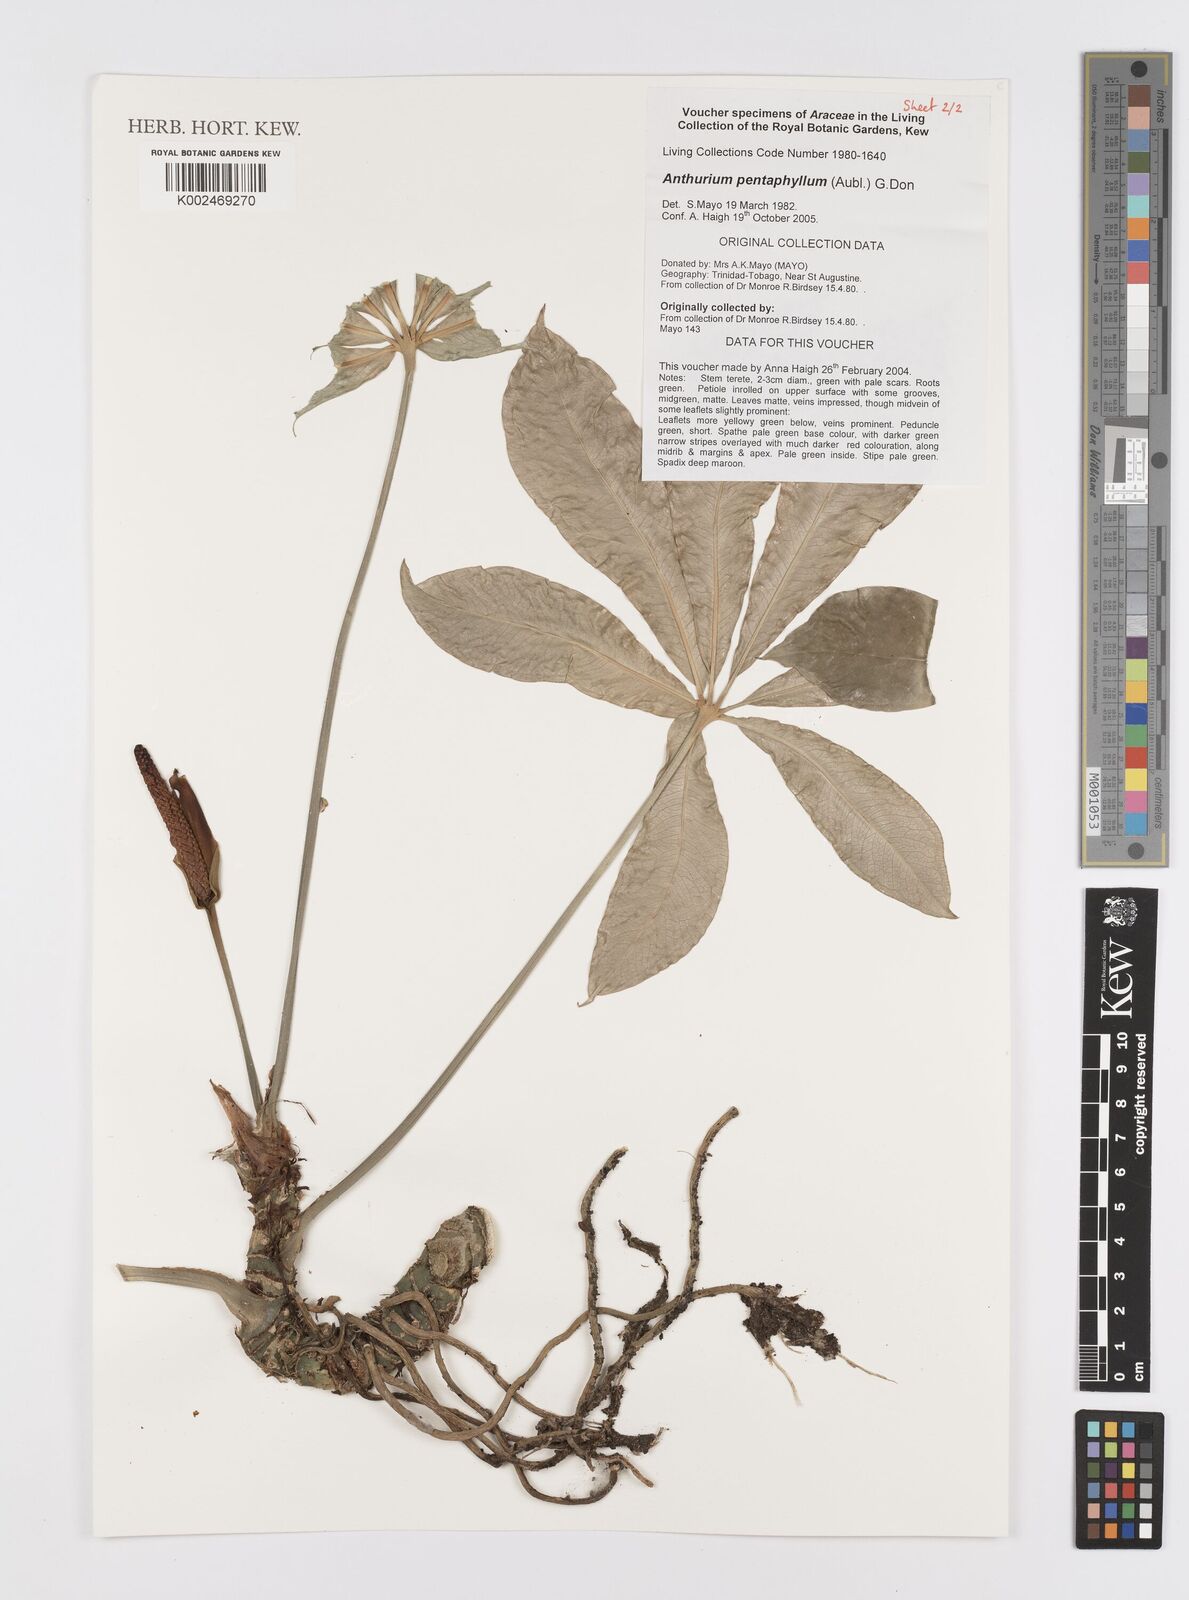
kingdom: Plantae
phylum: Tracheophyta
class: Liliopsida
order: Alismatales
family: Araceae
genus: Anthurium
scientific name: Anthurium pentaphyllum
